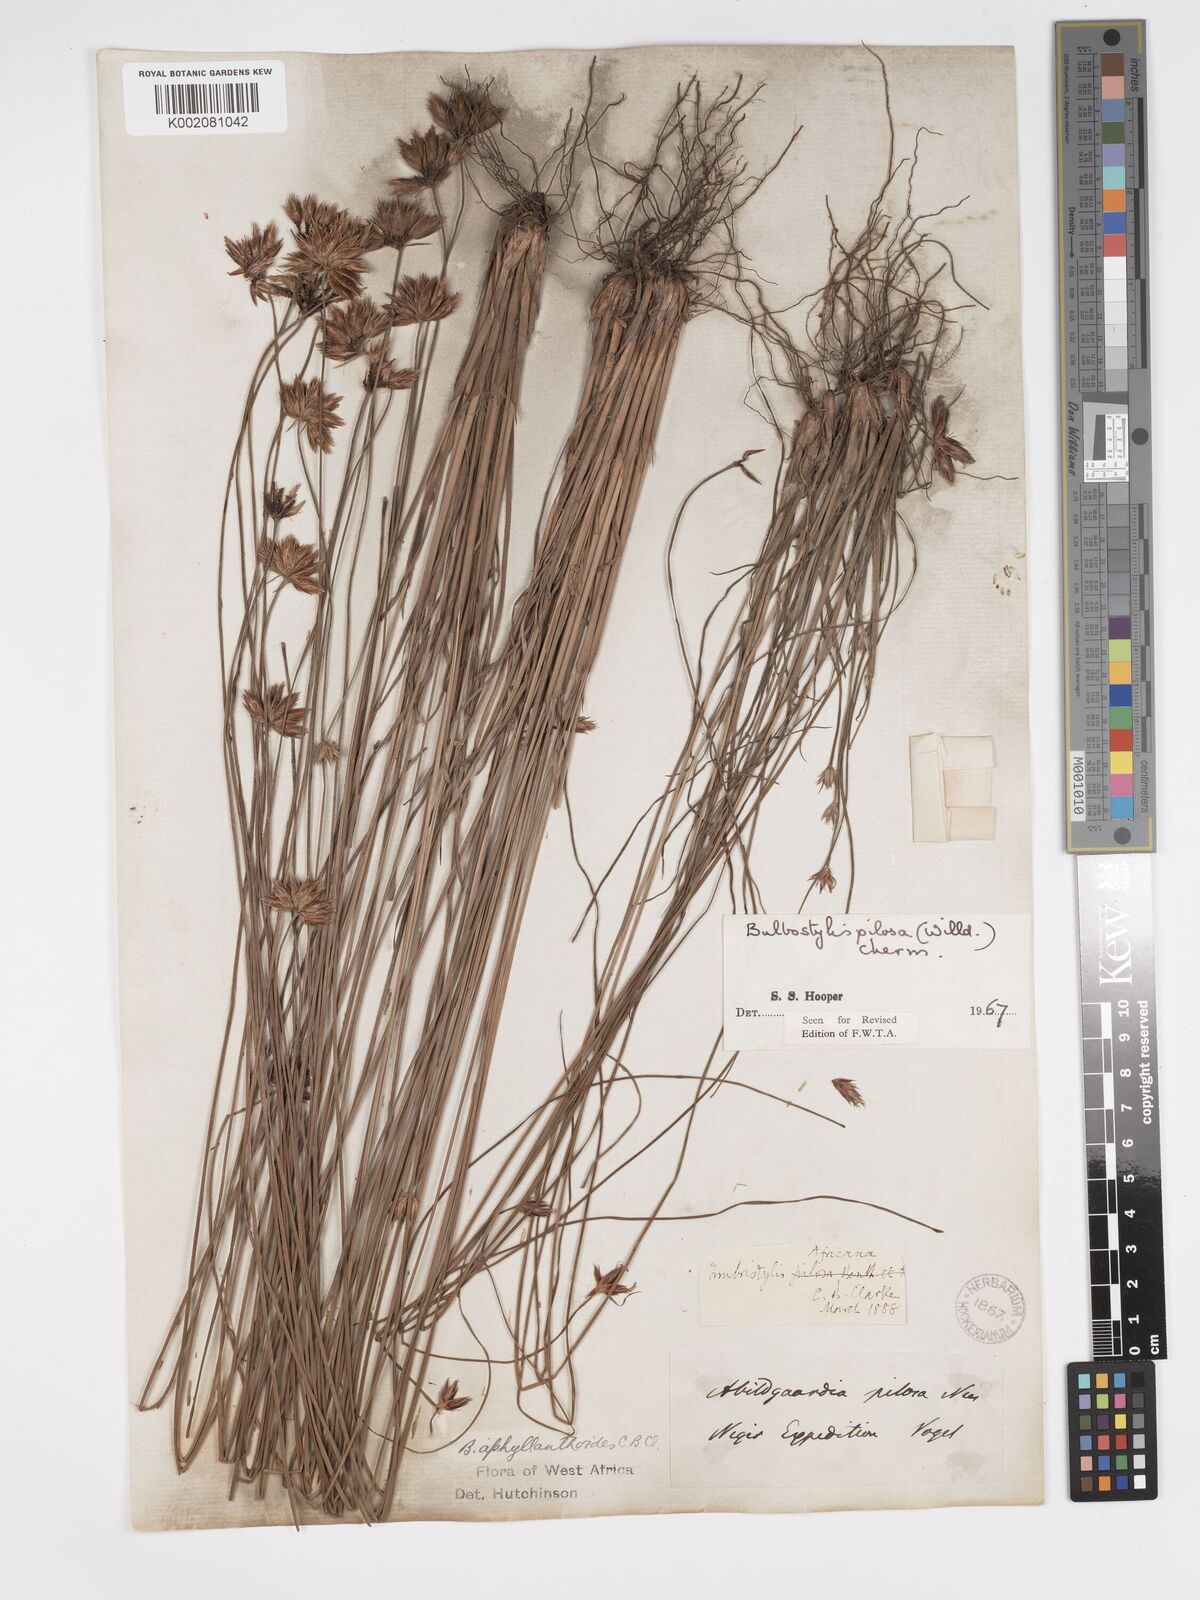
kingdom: Plantae
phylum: Tracheophyta
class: Liliopsida
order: Poales
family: Cyperaceae
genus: Bulbostylis
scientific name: Bulbostylis pilosa
